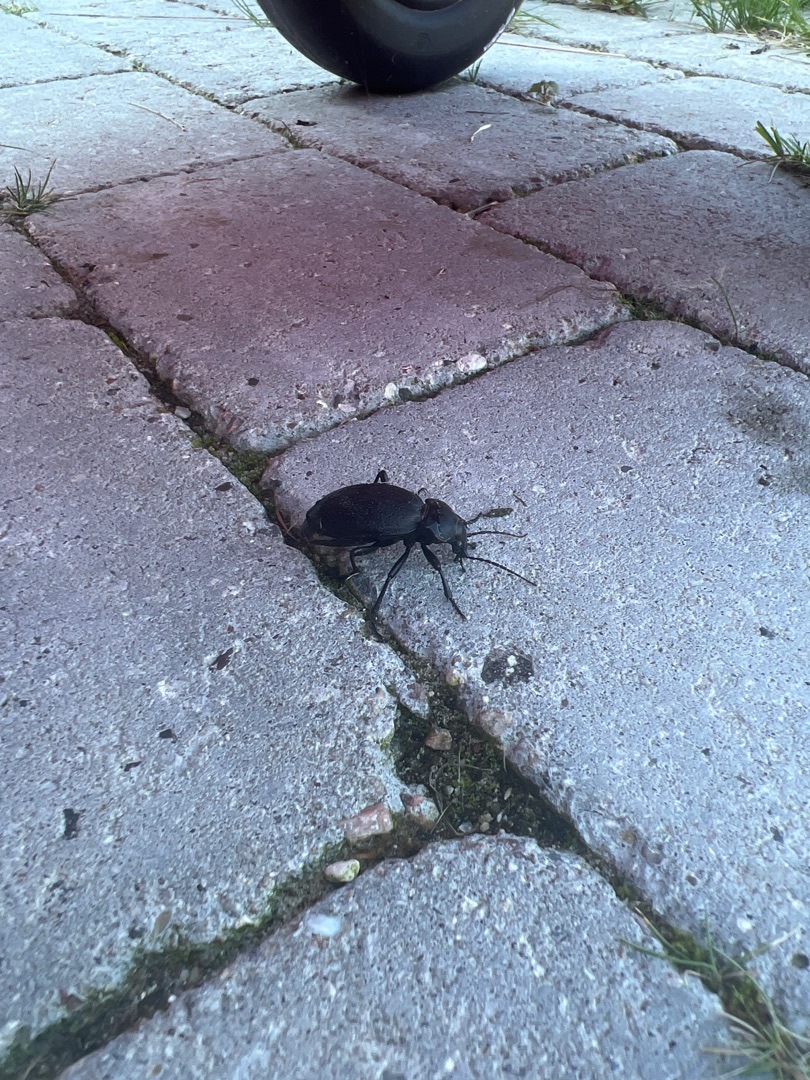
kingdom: Animalia
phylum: Arthropoda
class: Insecta
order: Coleoptera
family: Carabidae
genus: Carabus
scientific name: Carabus coriaceus
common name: Læderløber
